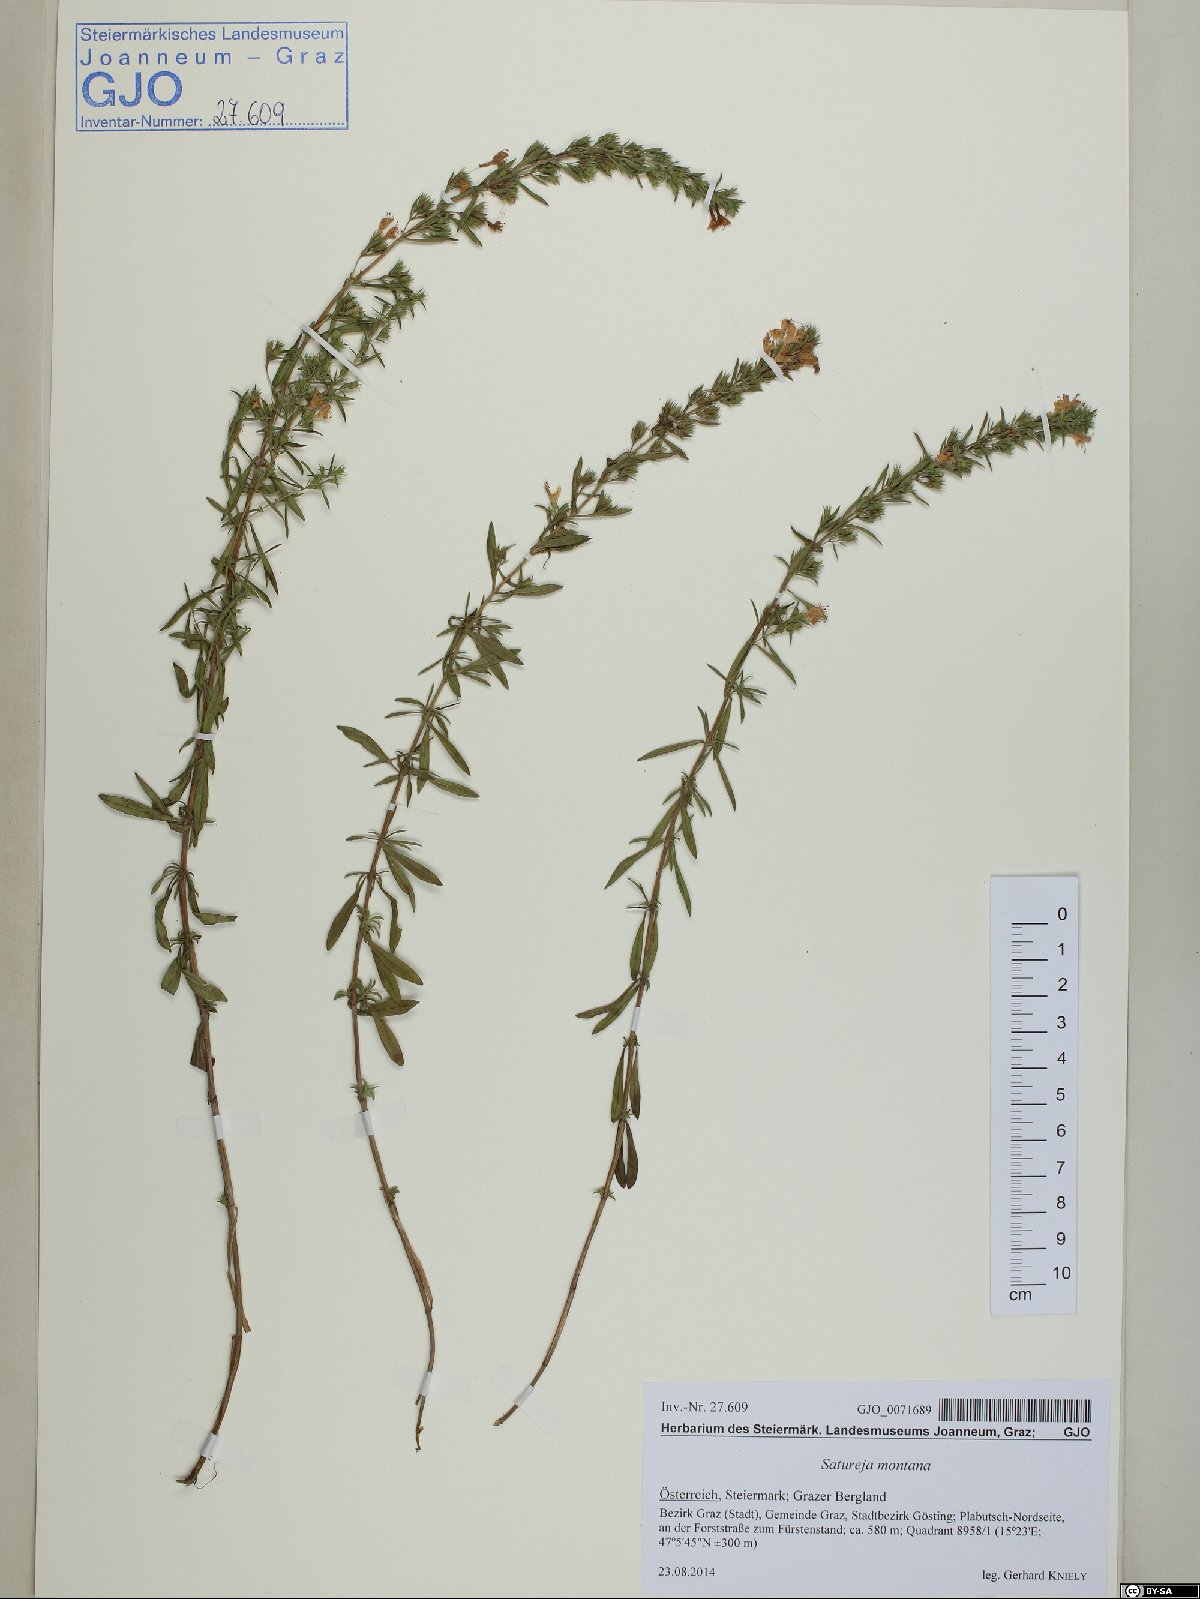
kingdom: Plantae
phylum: Tracheophyta
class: Magnoliopsida
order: Lamiales
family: Lamiaceae
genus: Satureja
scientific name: Satureja montana
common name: Winter savory
